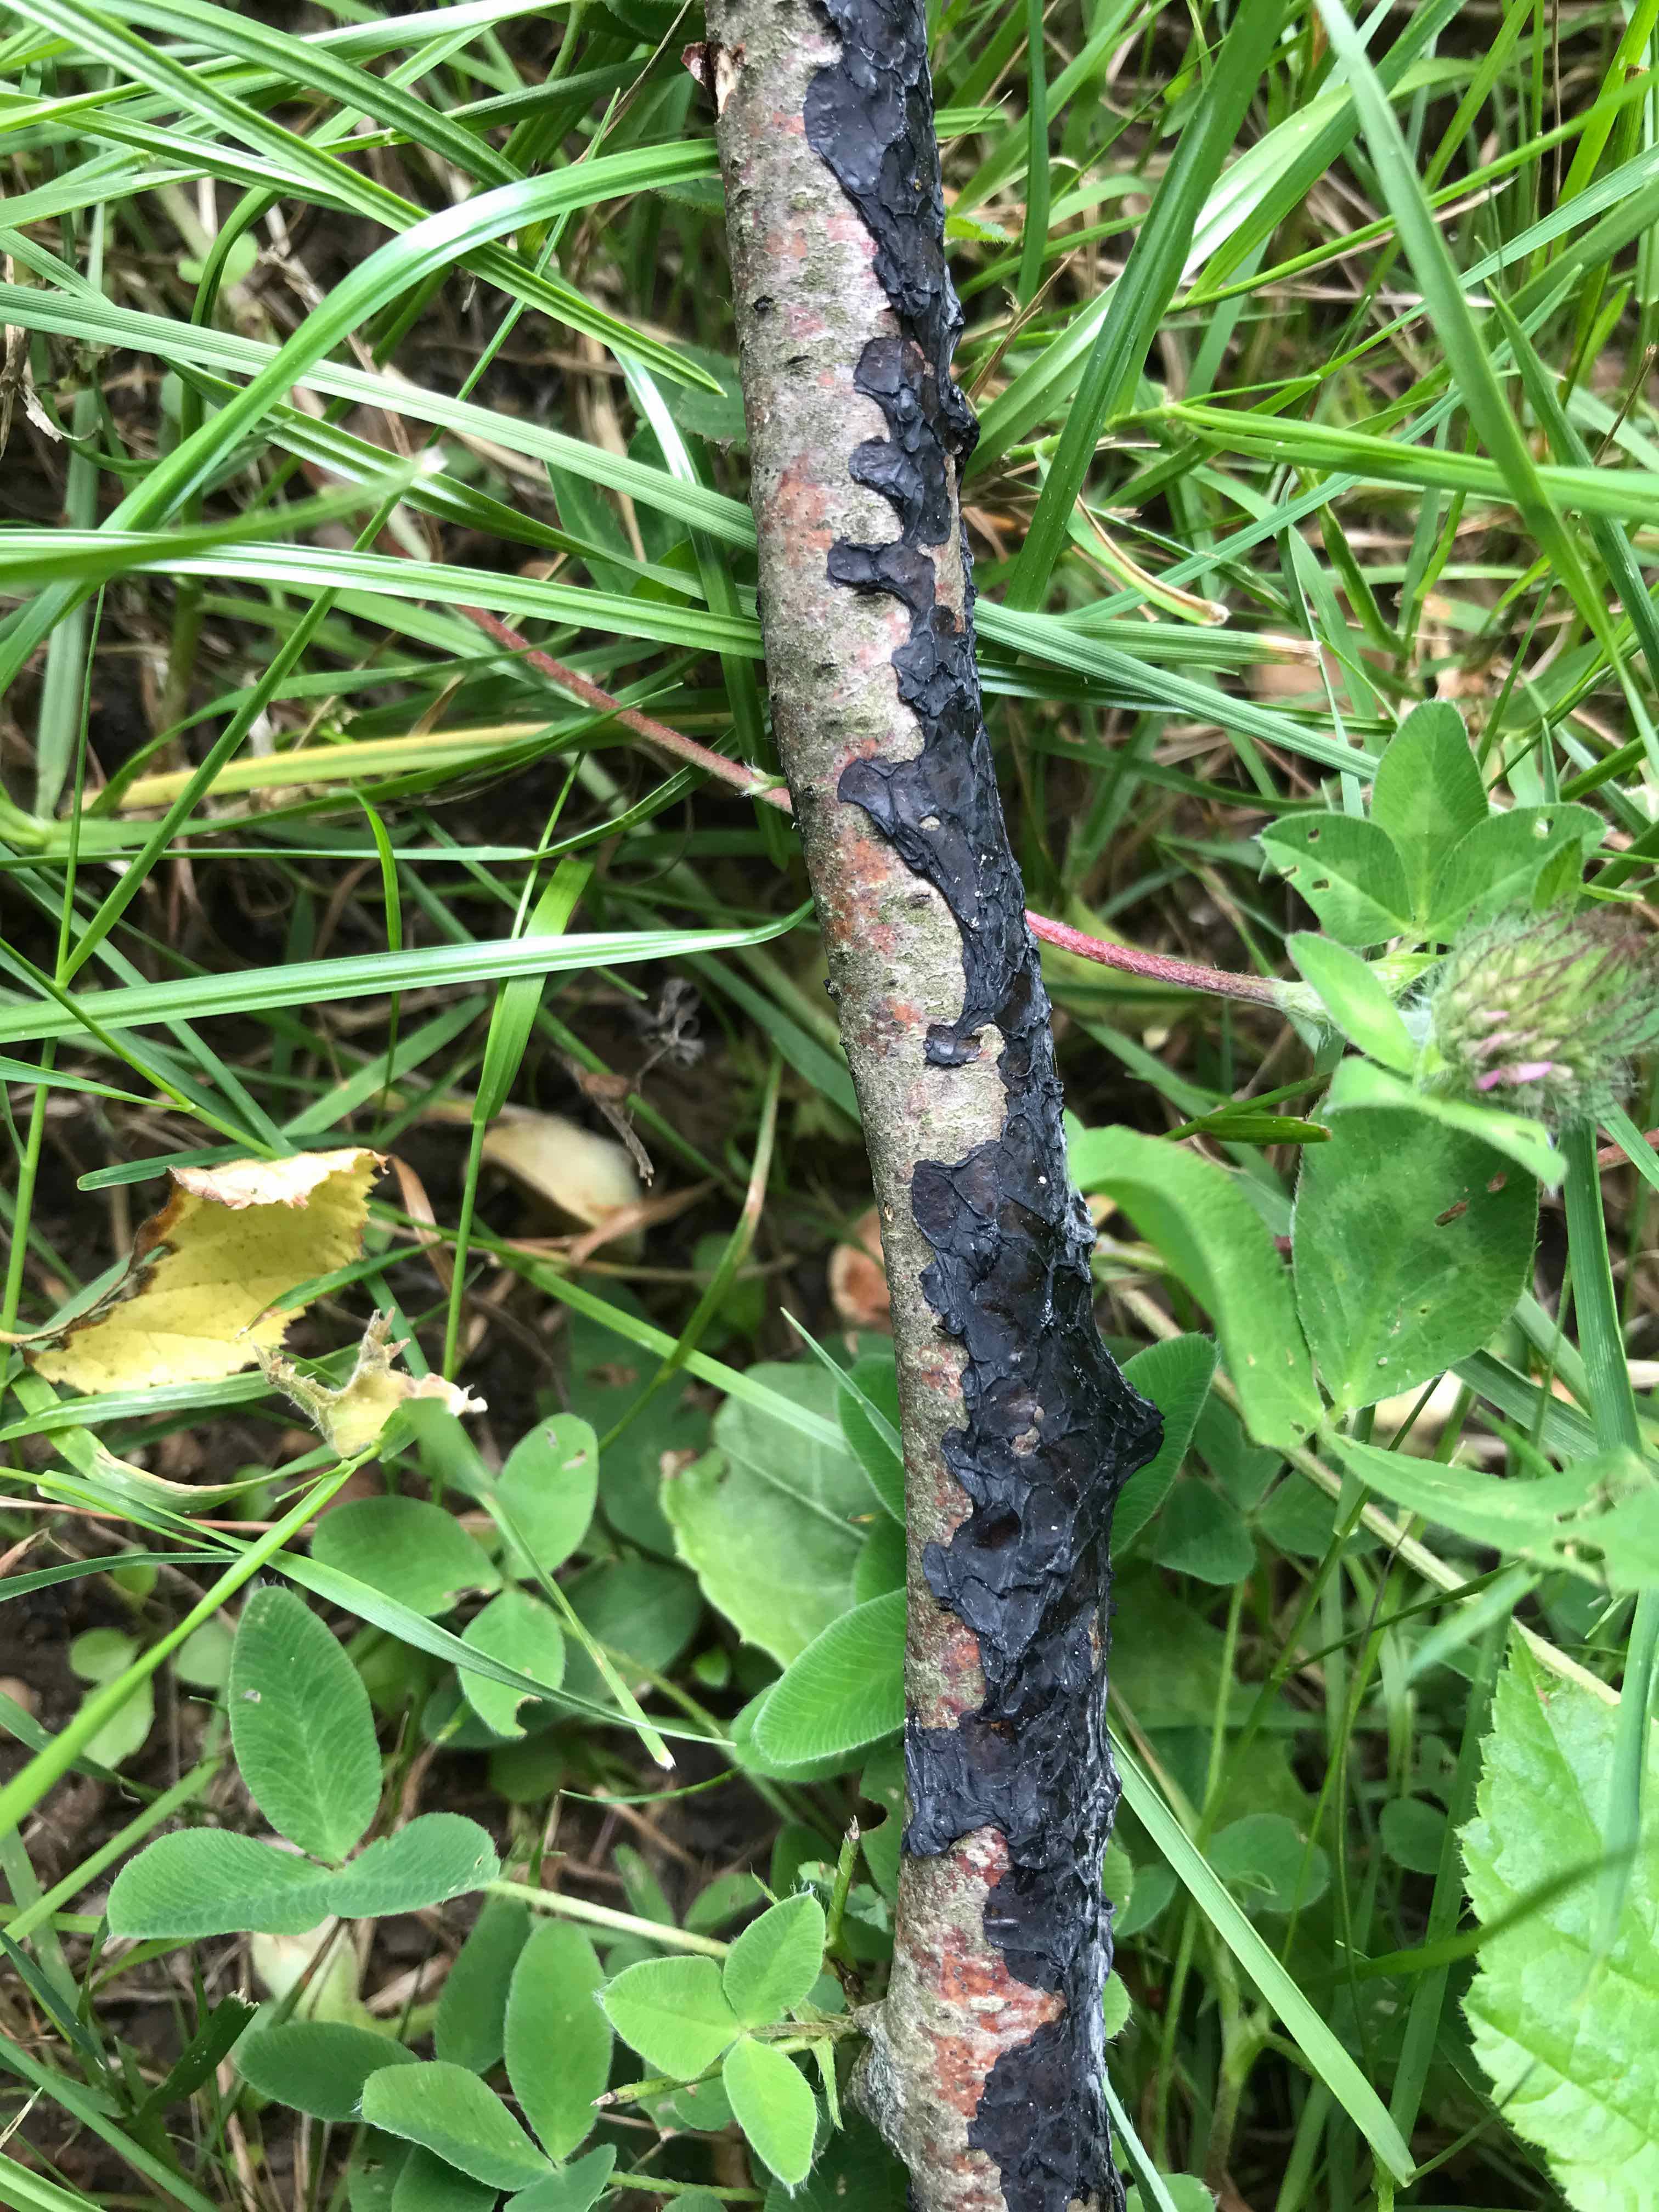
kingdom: Fungi
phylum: Basidiomycota
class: Agaricomycetes
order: Auriculariales
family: Auriculariaceae
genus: Exidia
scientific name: Exidia nigricans
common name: almindelig bævretop
